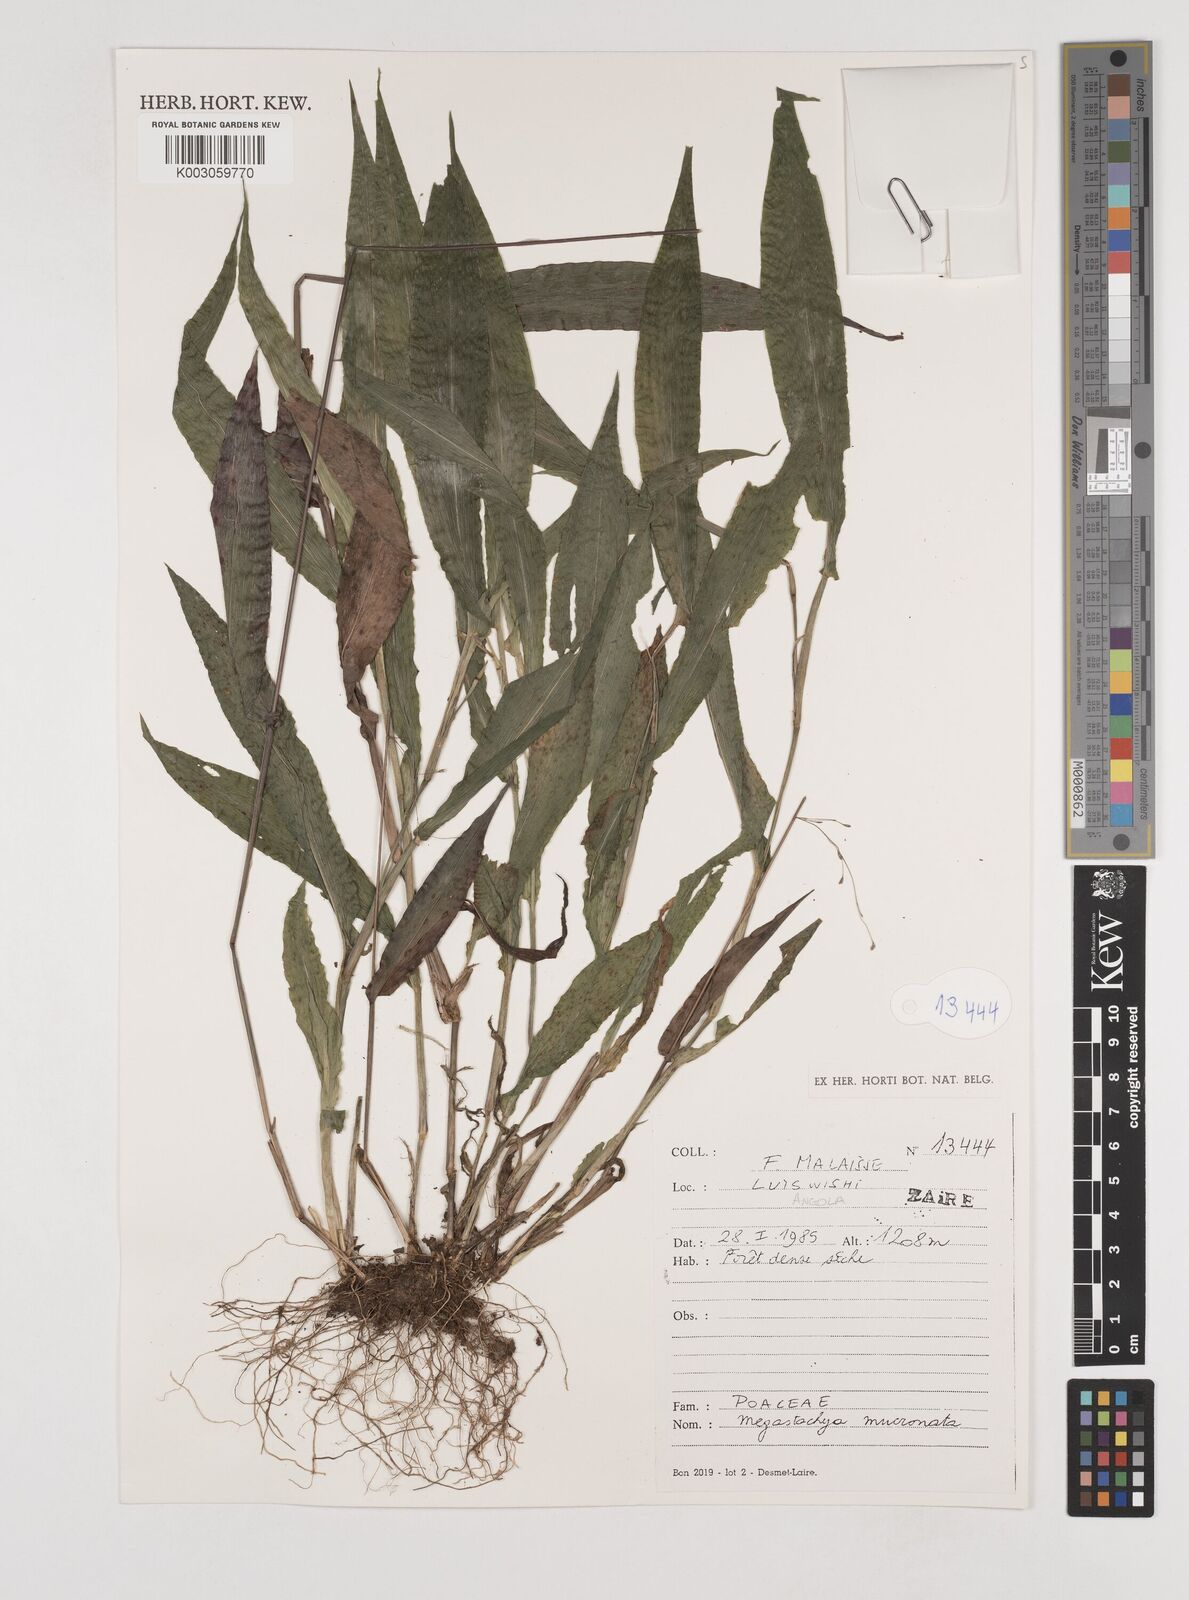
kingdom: Plantae
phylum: Tracheophyta
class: Liliopsida
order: Poales
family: Poaceae
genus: Megastachya
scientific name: Megastachya mucronata
